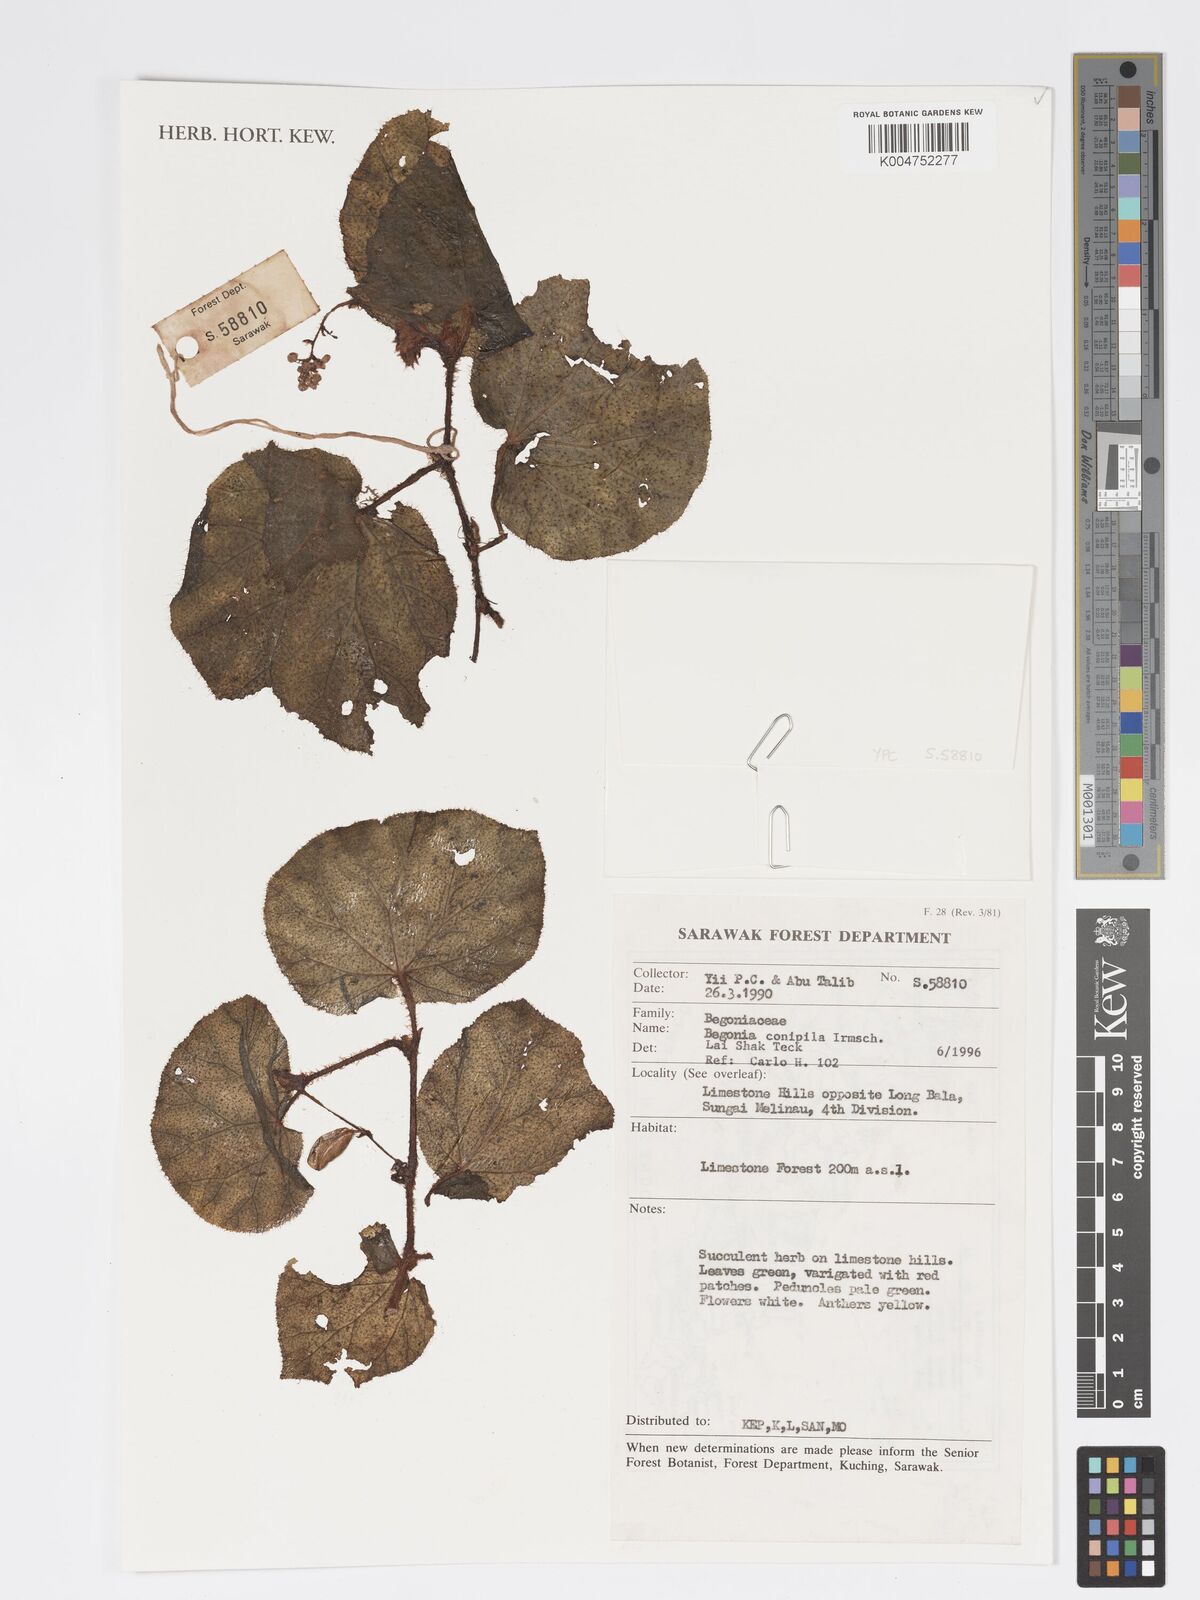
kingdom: Plantae
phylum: Tracheophyta
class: Magnoliopsida
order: Cucurbitales
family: Begoniaceae
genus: Begonia
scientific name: Begonia conipila
